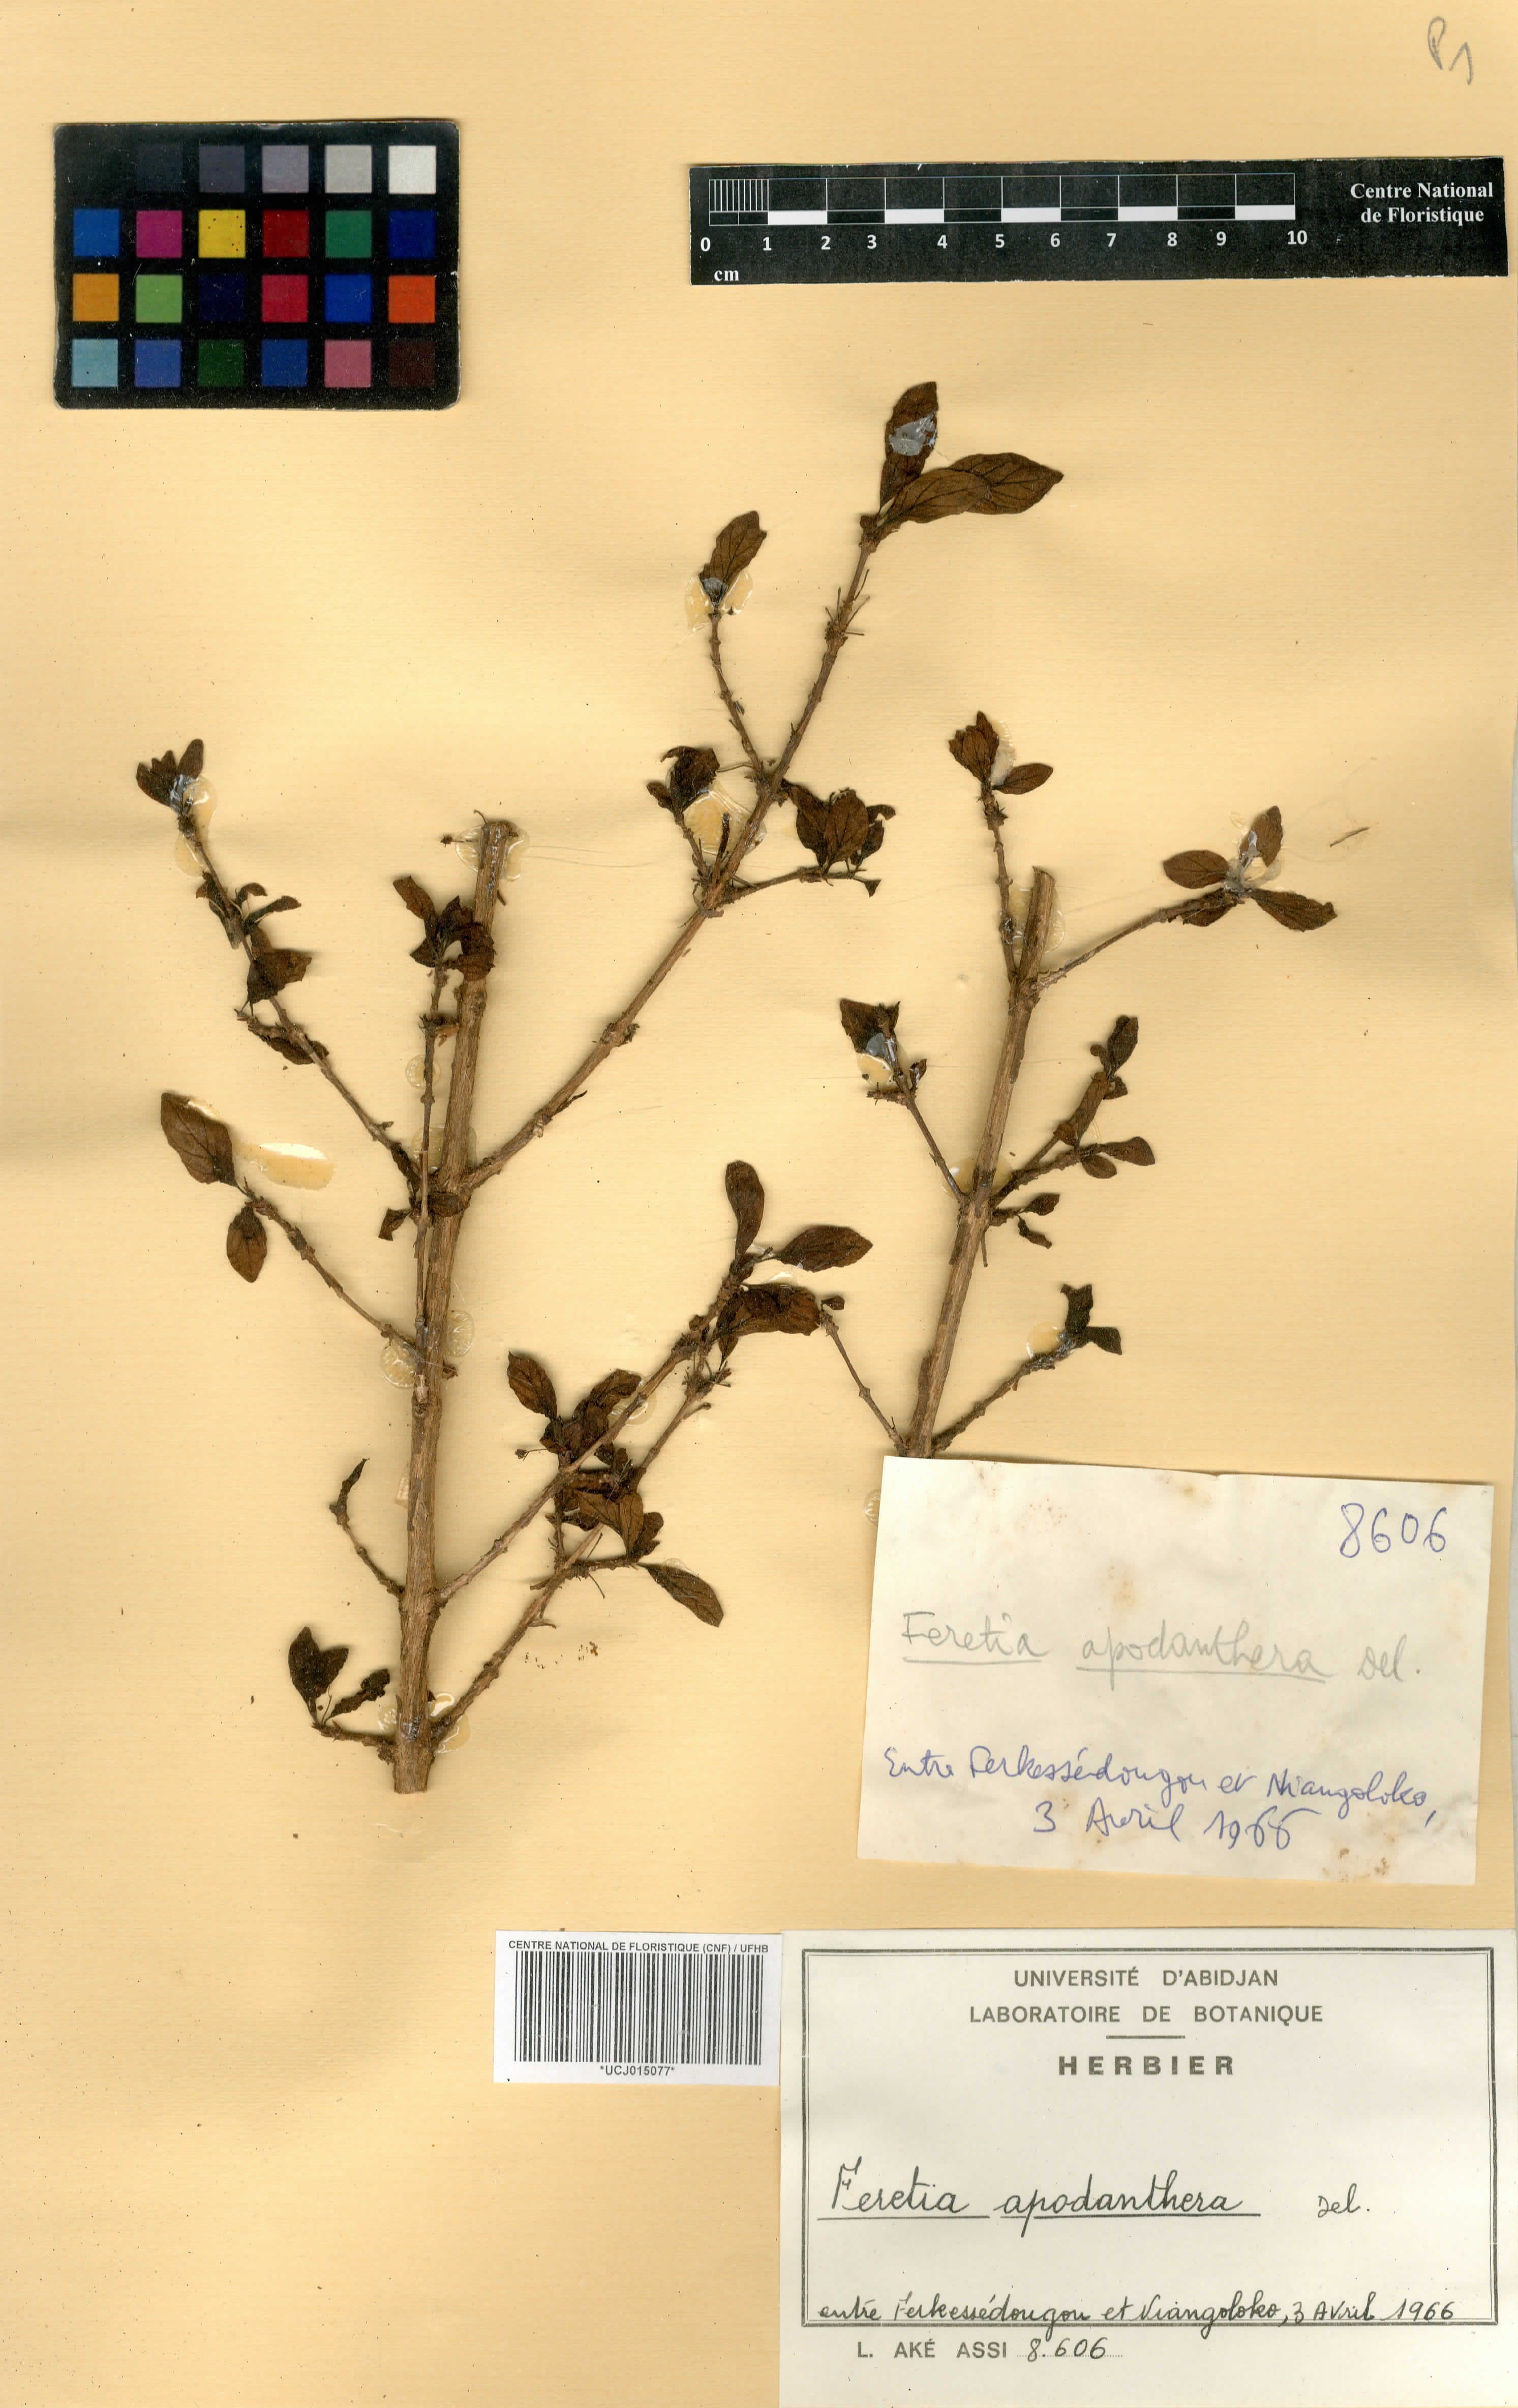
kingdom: Plantae
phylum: Tracheophyta
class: Magnoliopsida
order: Gentianales
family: Rubiaceae
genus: Feretia
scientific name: Feretia apodanthera
